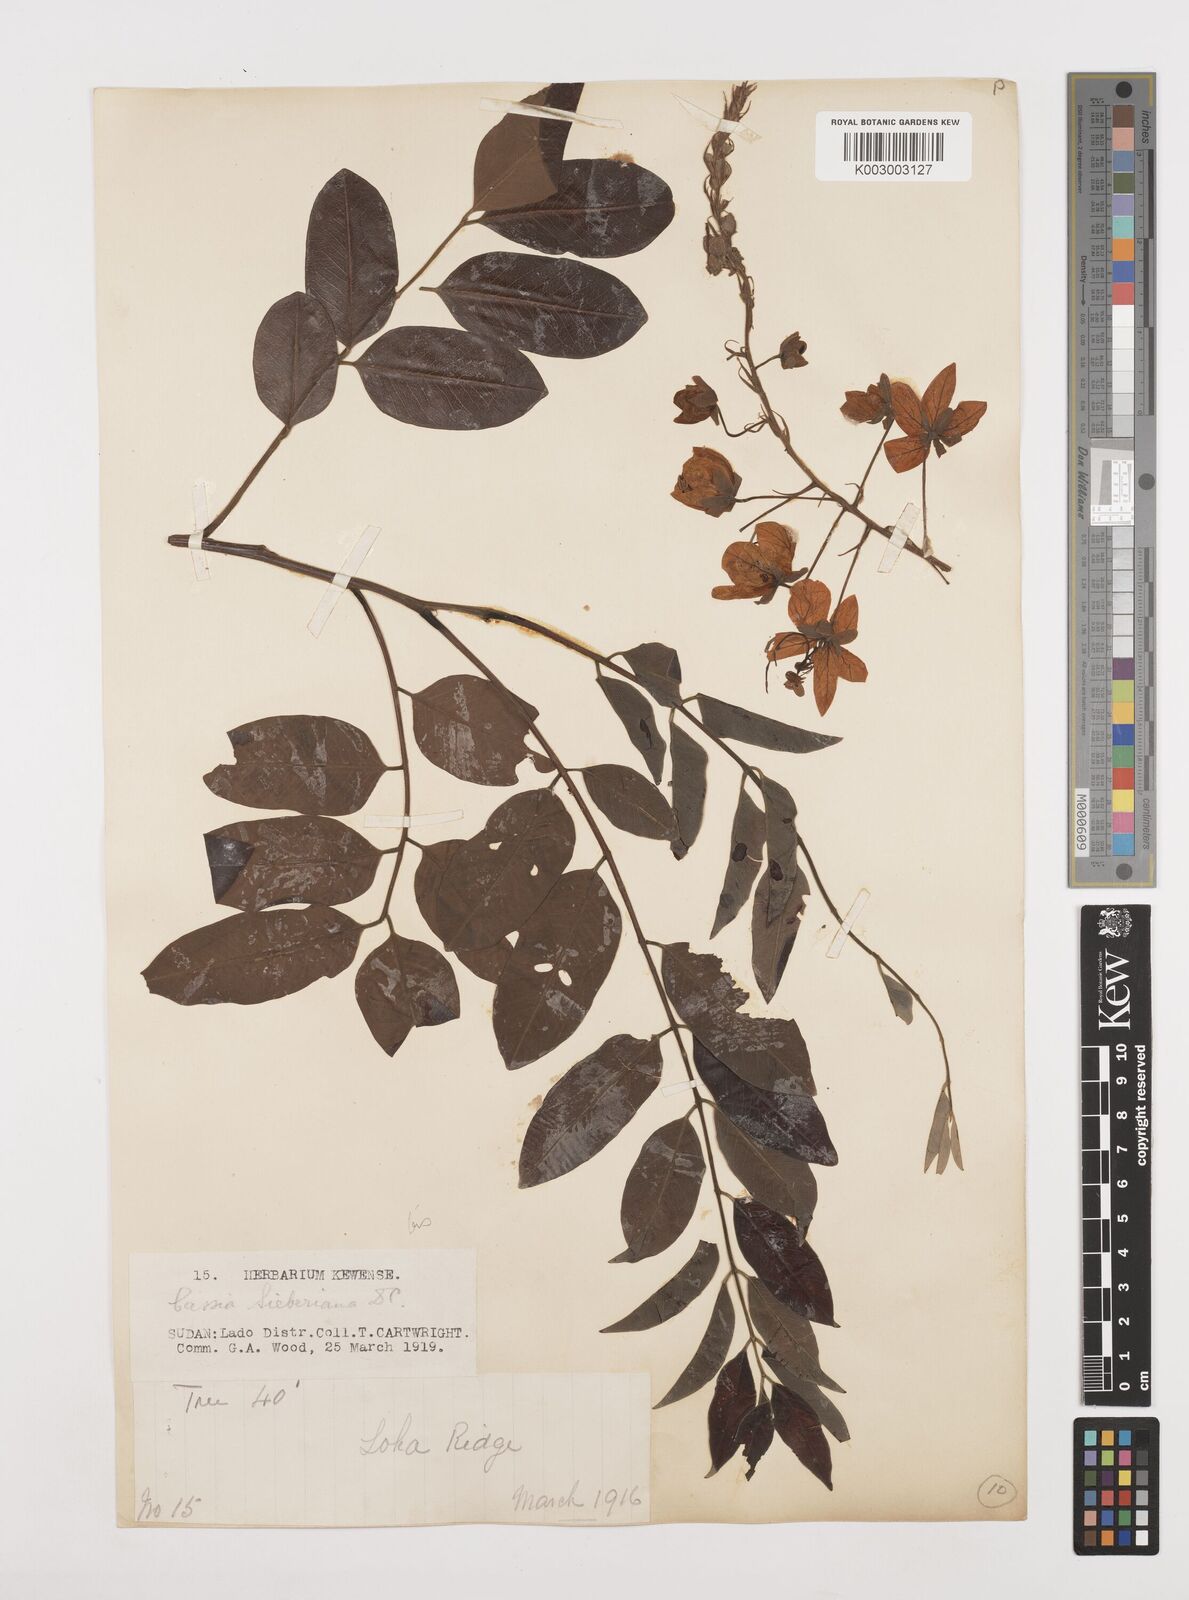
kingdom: Plantae
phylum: Tracheophyta
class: Magnoliopsida
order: Fabales
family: Fabaceae
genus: Cassia
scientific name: Cassia sieberiana
